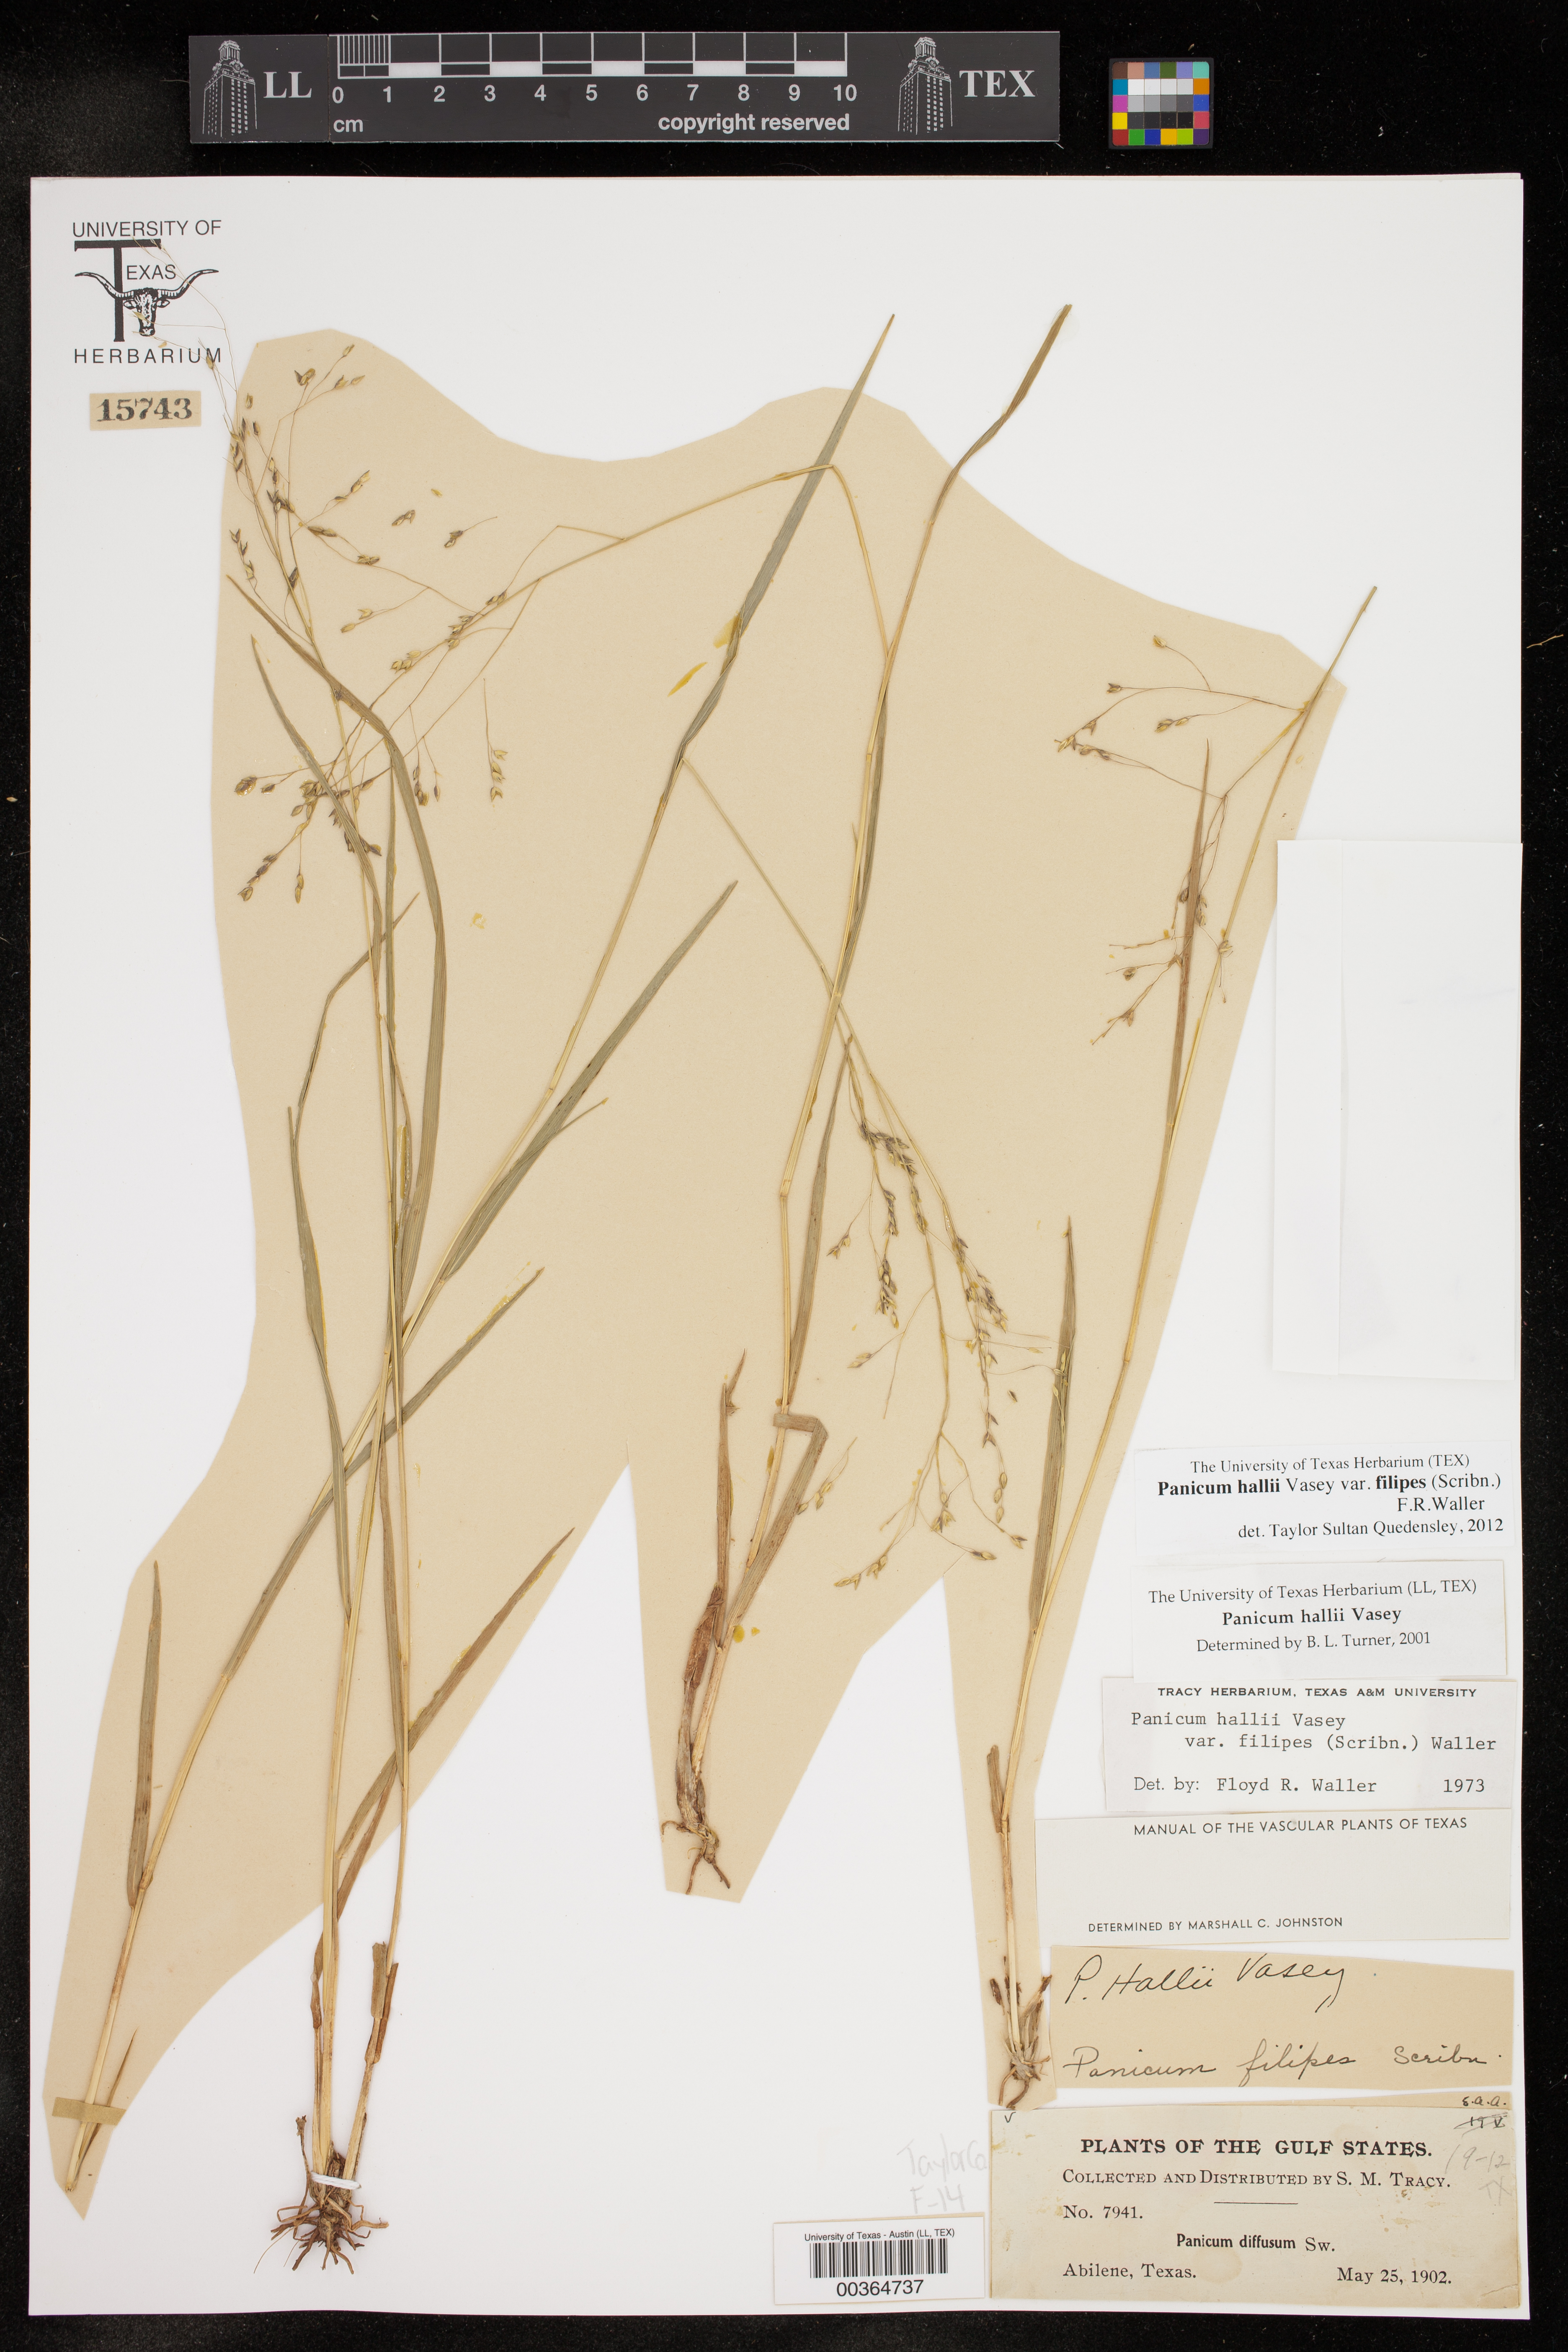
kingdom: Plantae
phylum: Tracheophyta
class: Liliopsida
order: Poales
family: Poaceae
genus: Panicum
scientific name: Panicum hallii
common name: Hall's witchgrass
